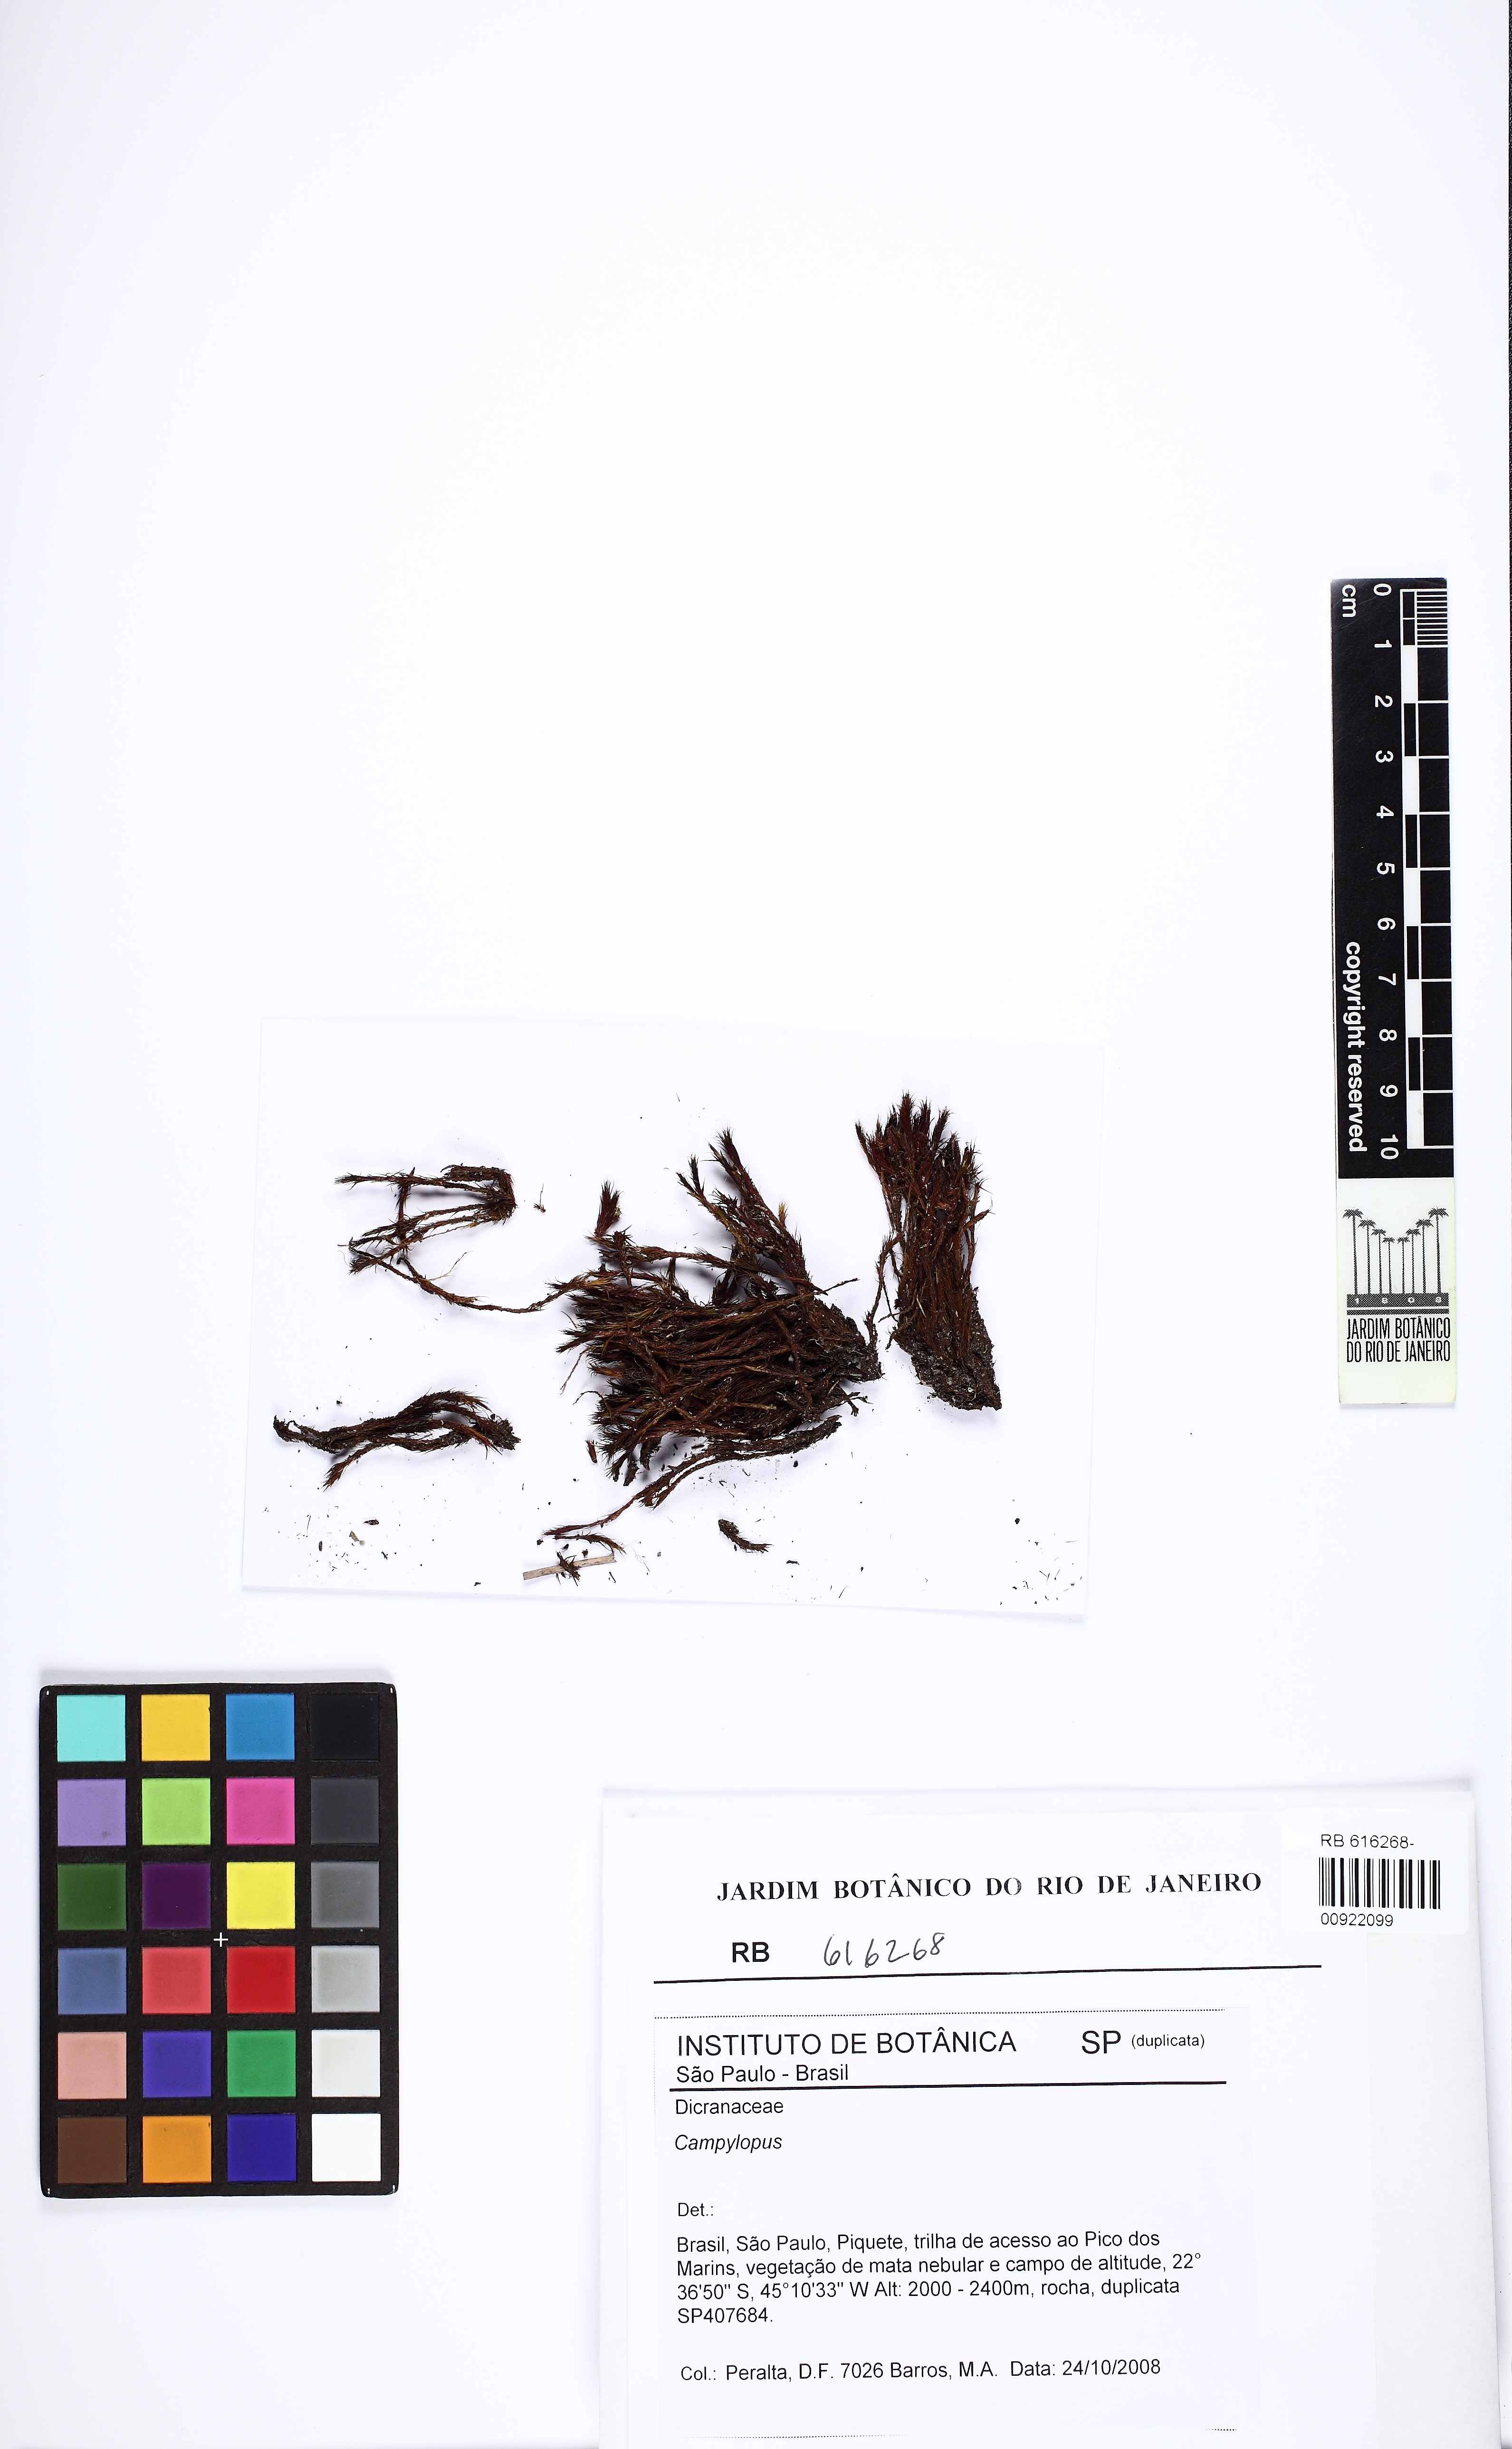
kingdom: Protozoa
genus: Campylopus
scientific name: Campylopus
